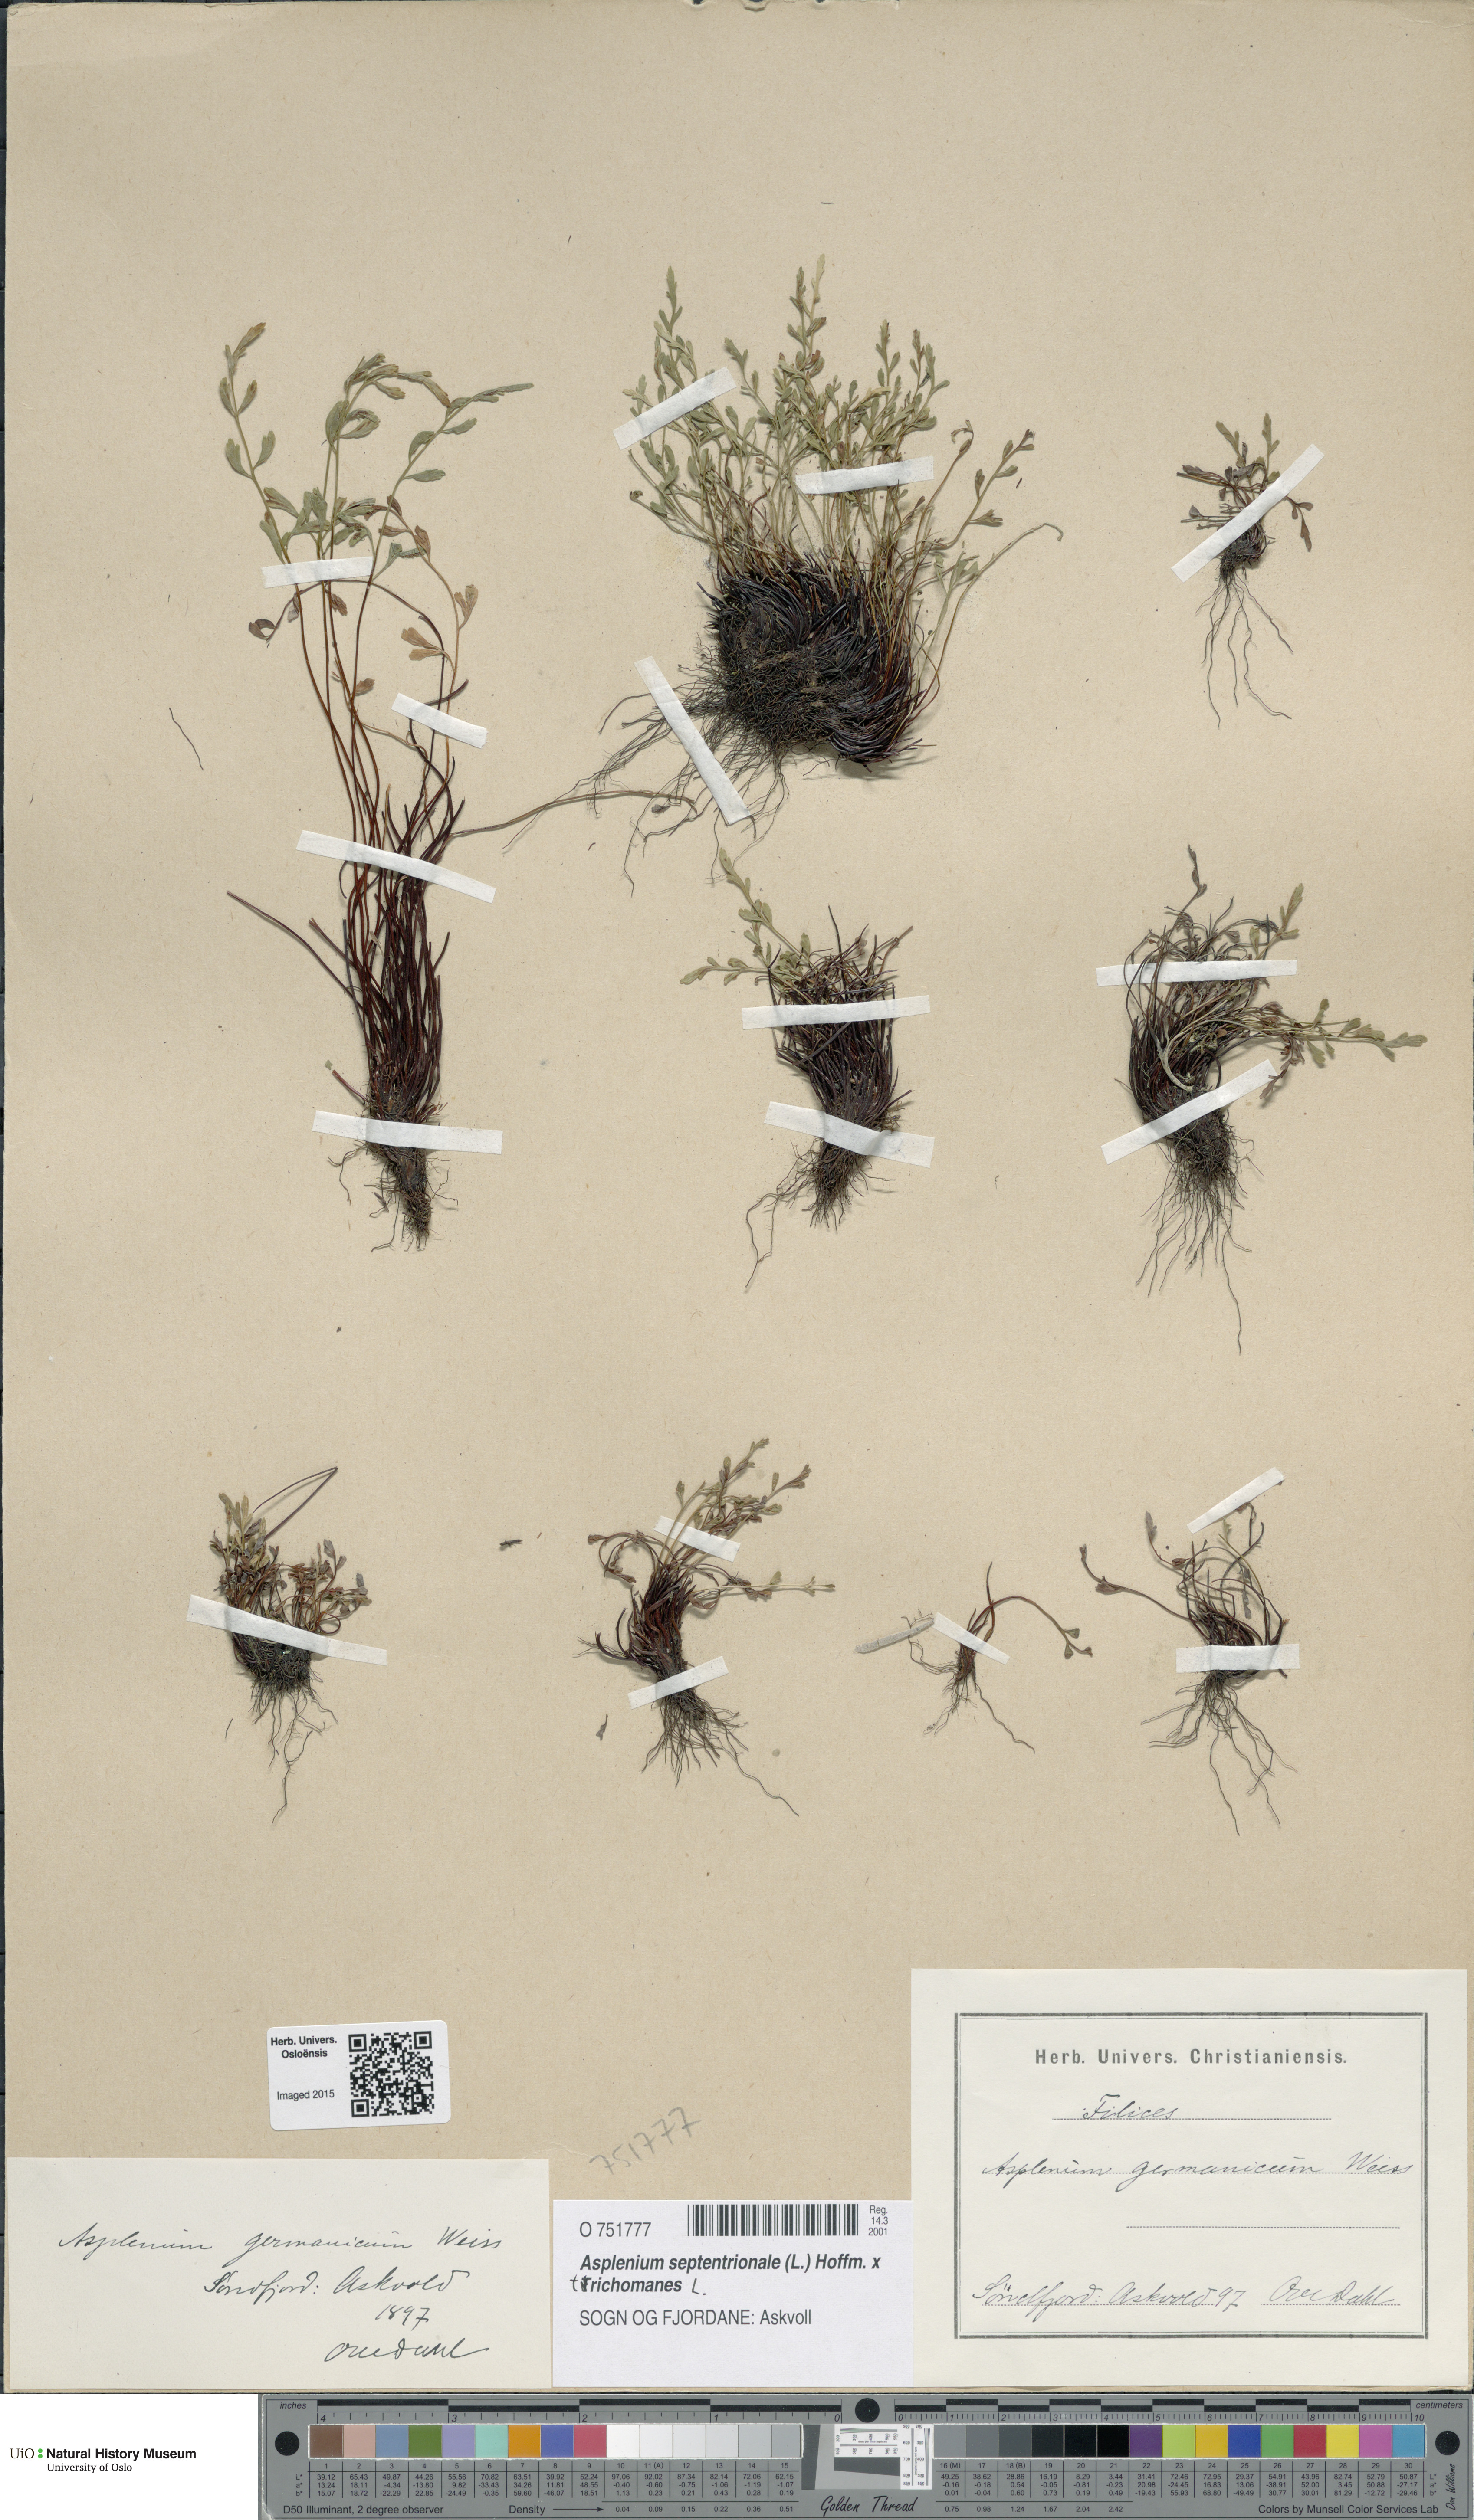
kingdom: Plantae
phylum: Tracheophyta
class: Polypodiopsida
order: Polypodiales
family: Aspleniaceae
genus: Asplenium
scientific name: Asplenium
